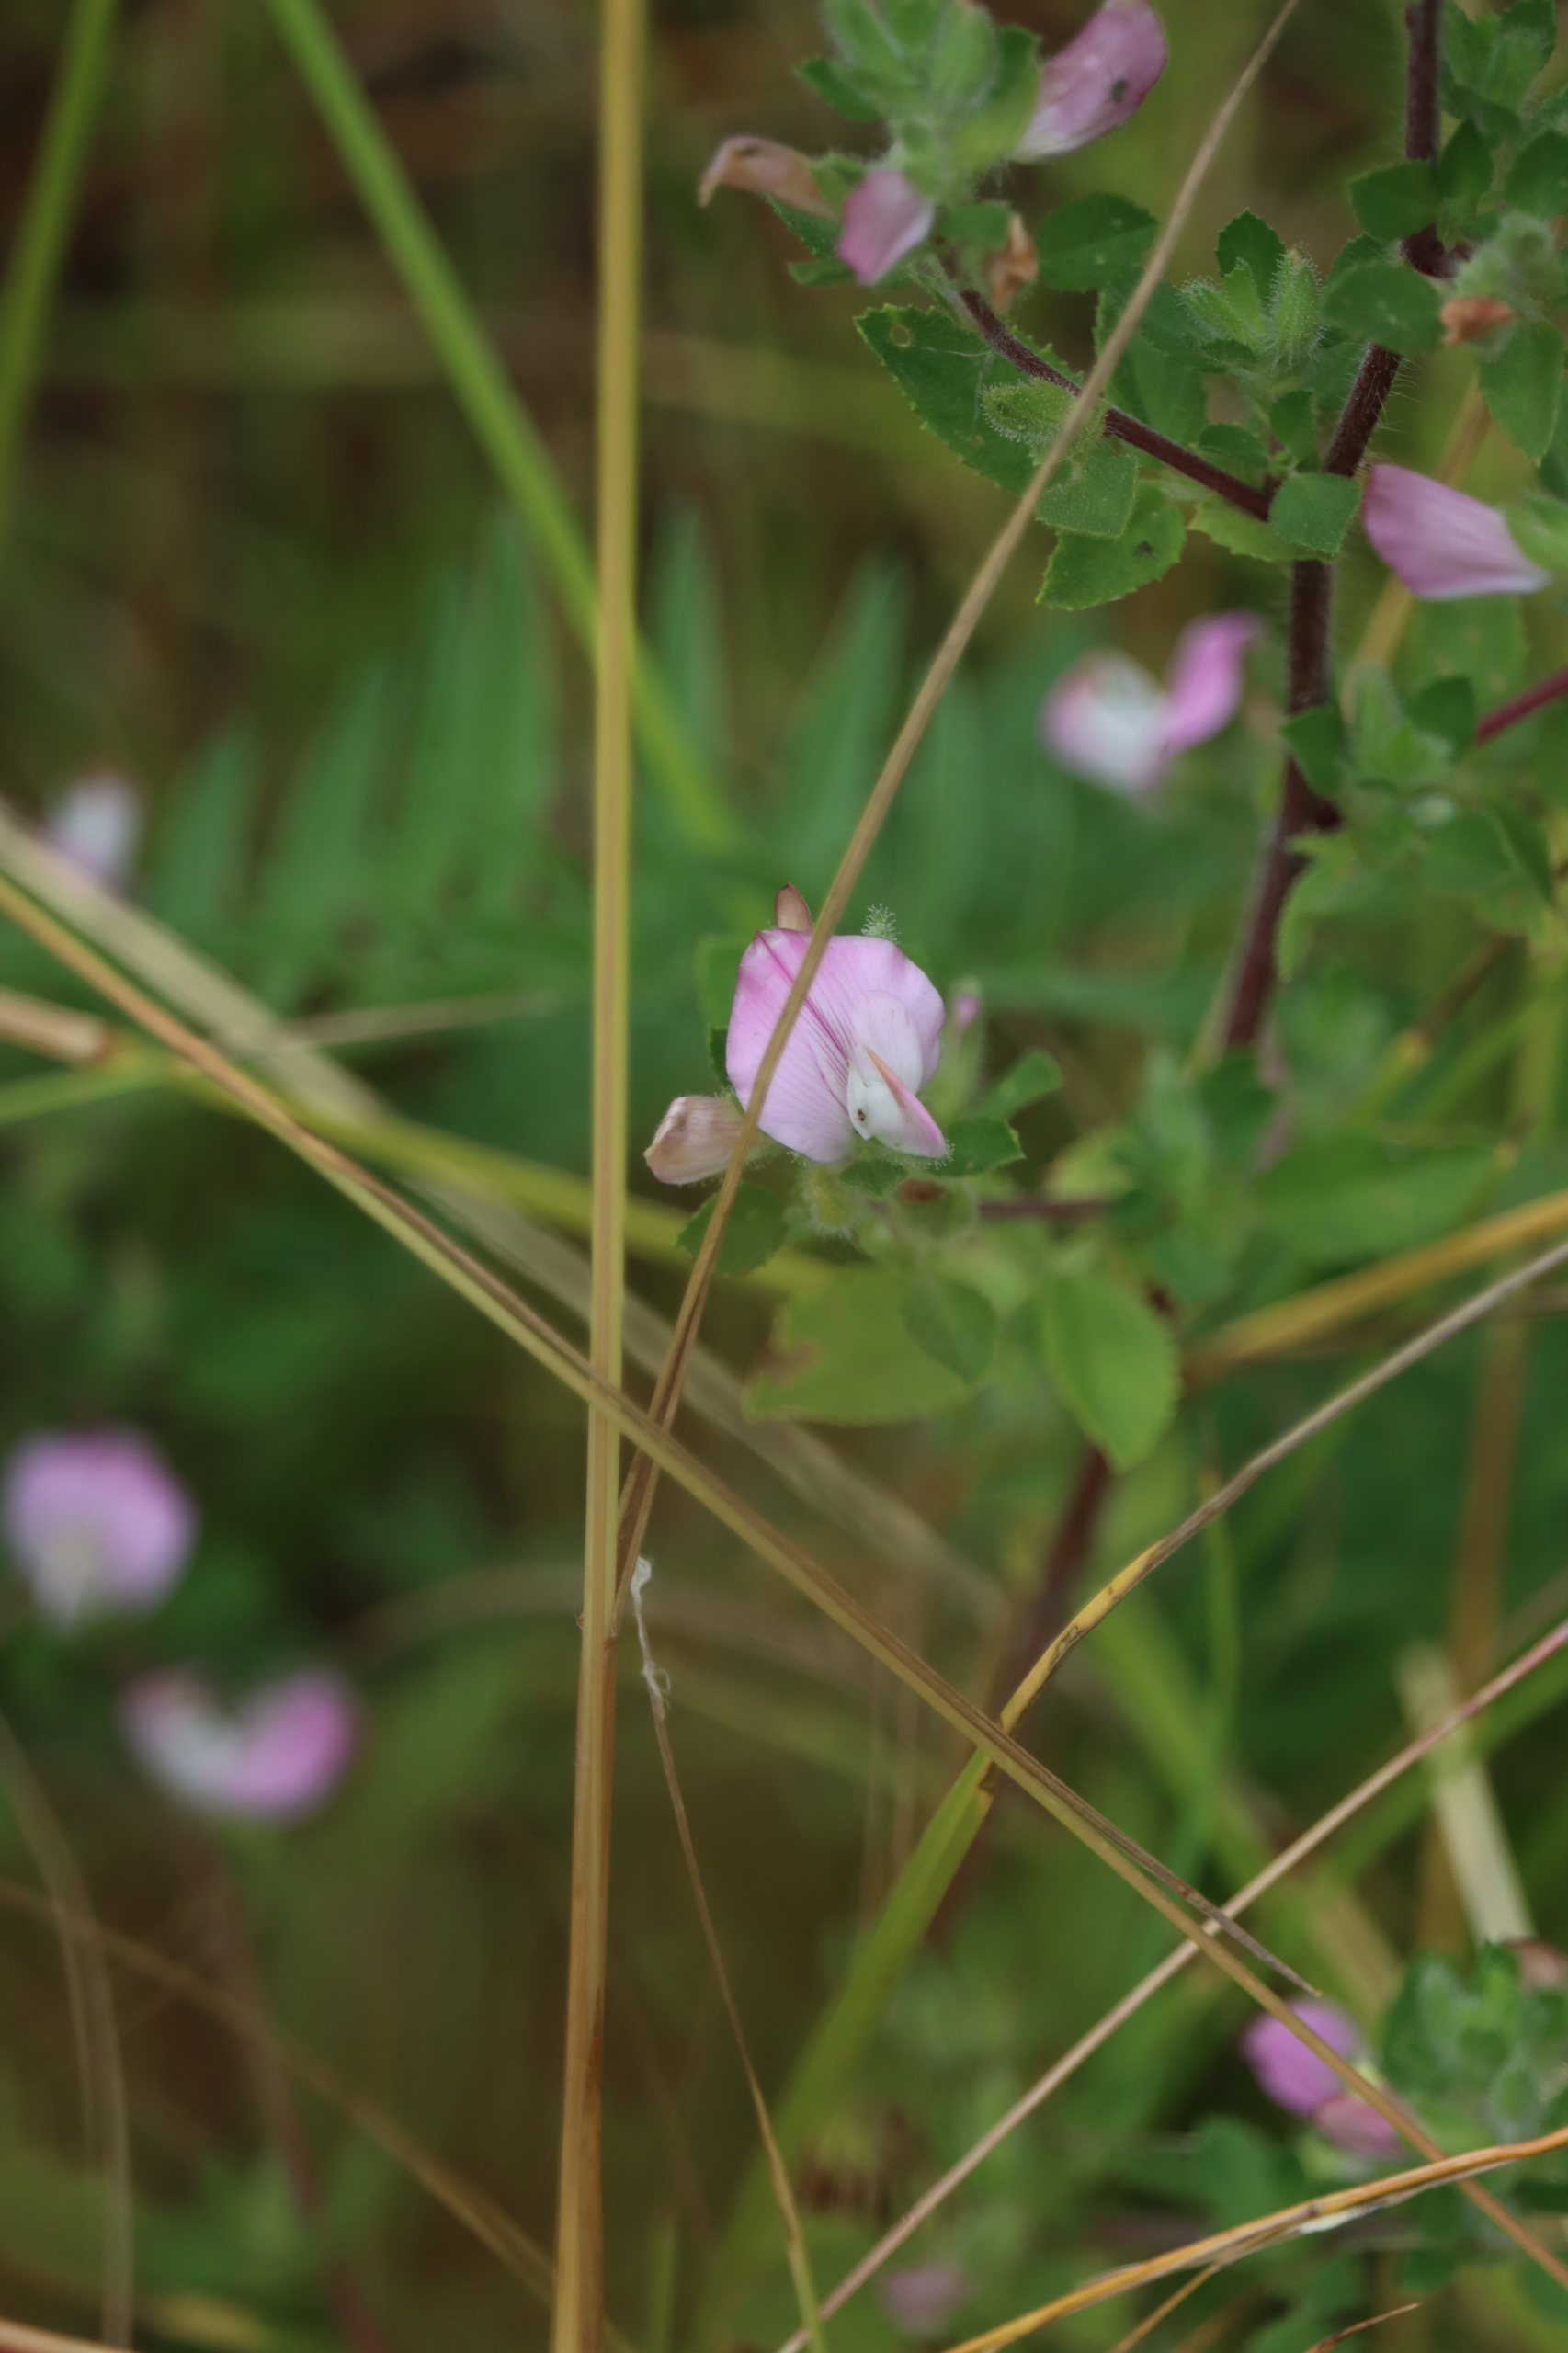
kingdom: Plantae
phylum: Tracheophyta
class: Magnoliopsida
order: Fabales
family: Fabaceae
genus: Ononis
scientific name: Ononis spinosa
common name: Mark-krageklo
